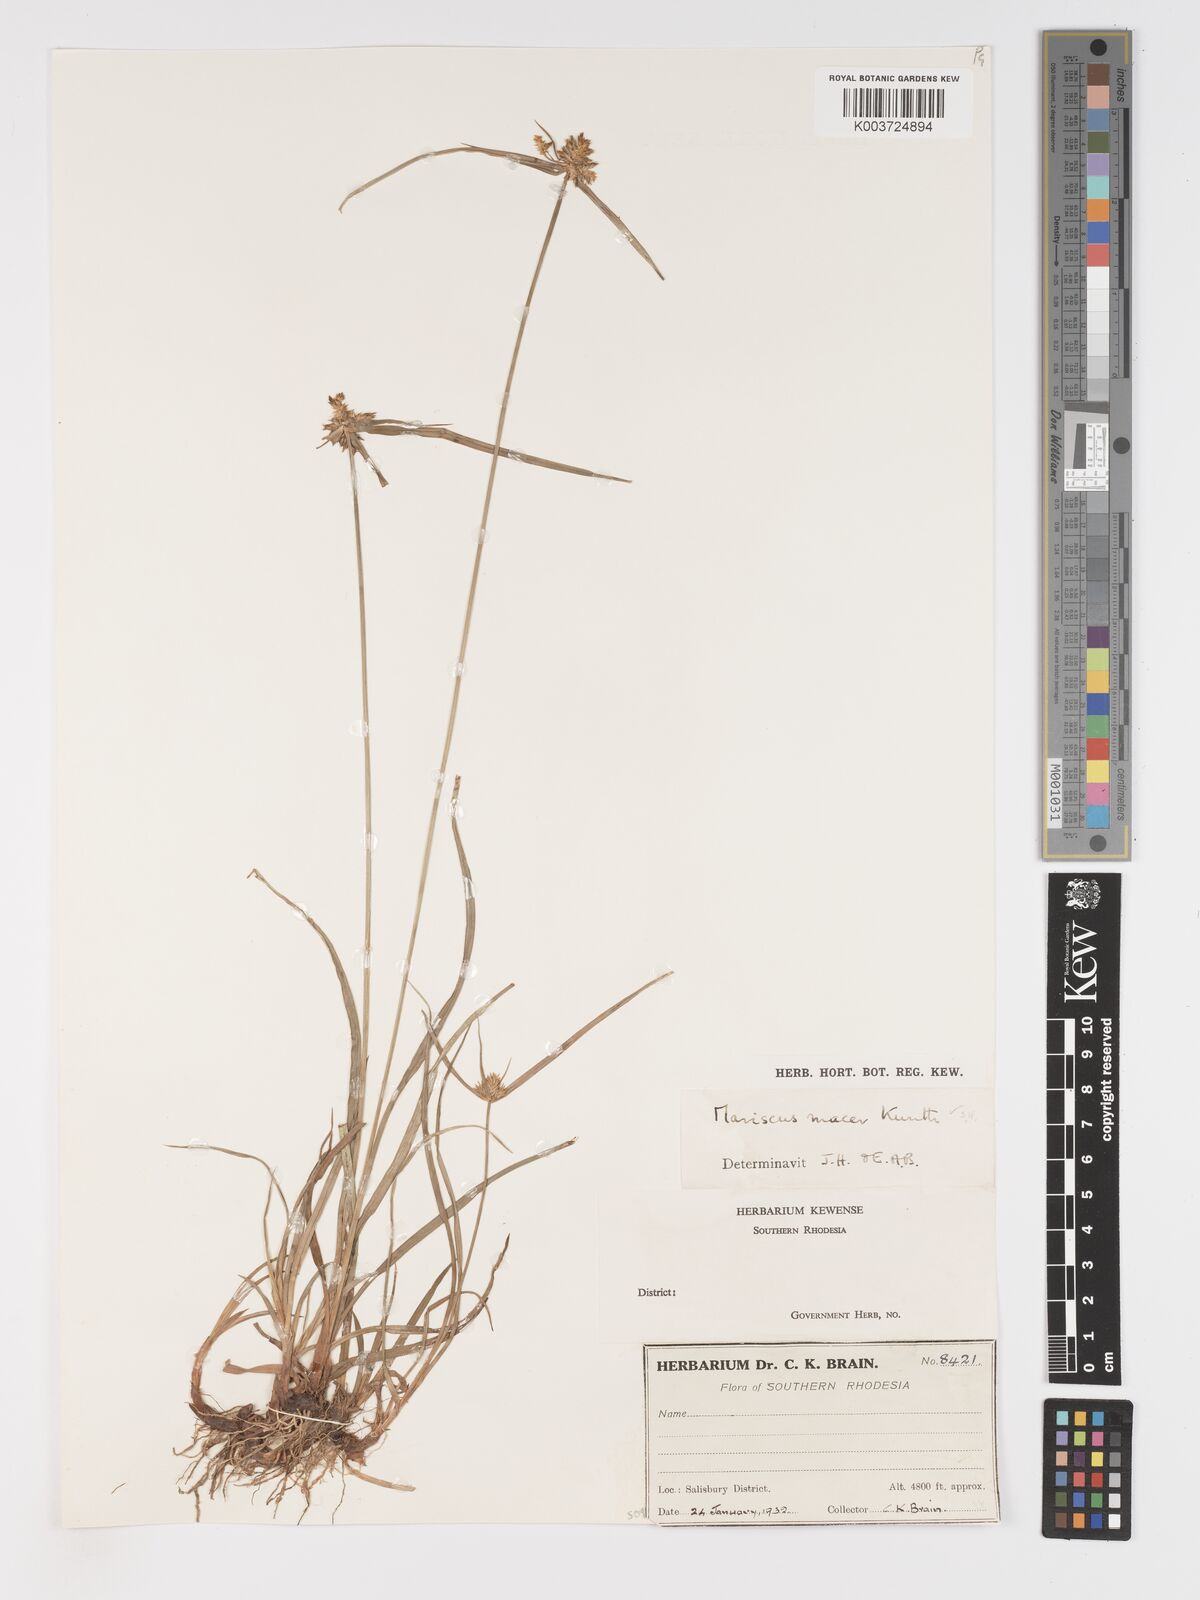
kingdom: Plantae
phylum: Tracheophyta
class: Liliopsida
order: Poales
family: Cyperaceae
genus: Cyperus
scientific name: Cyperus pseudoflavus
